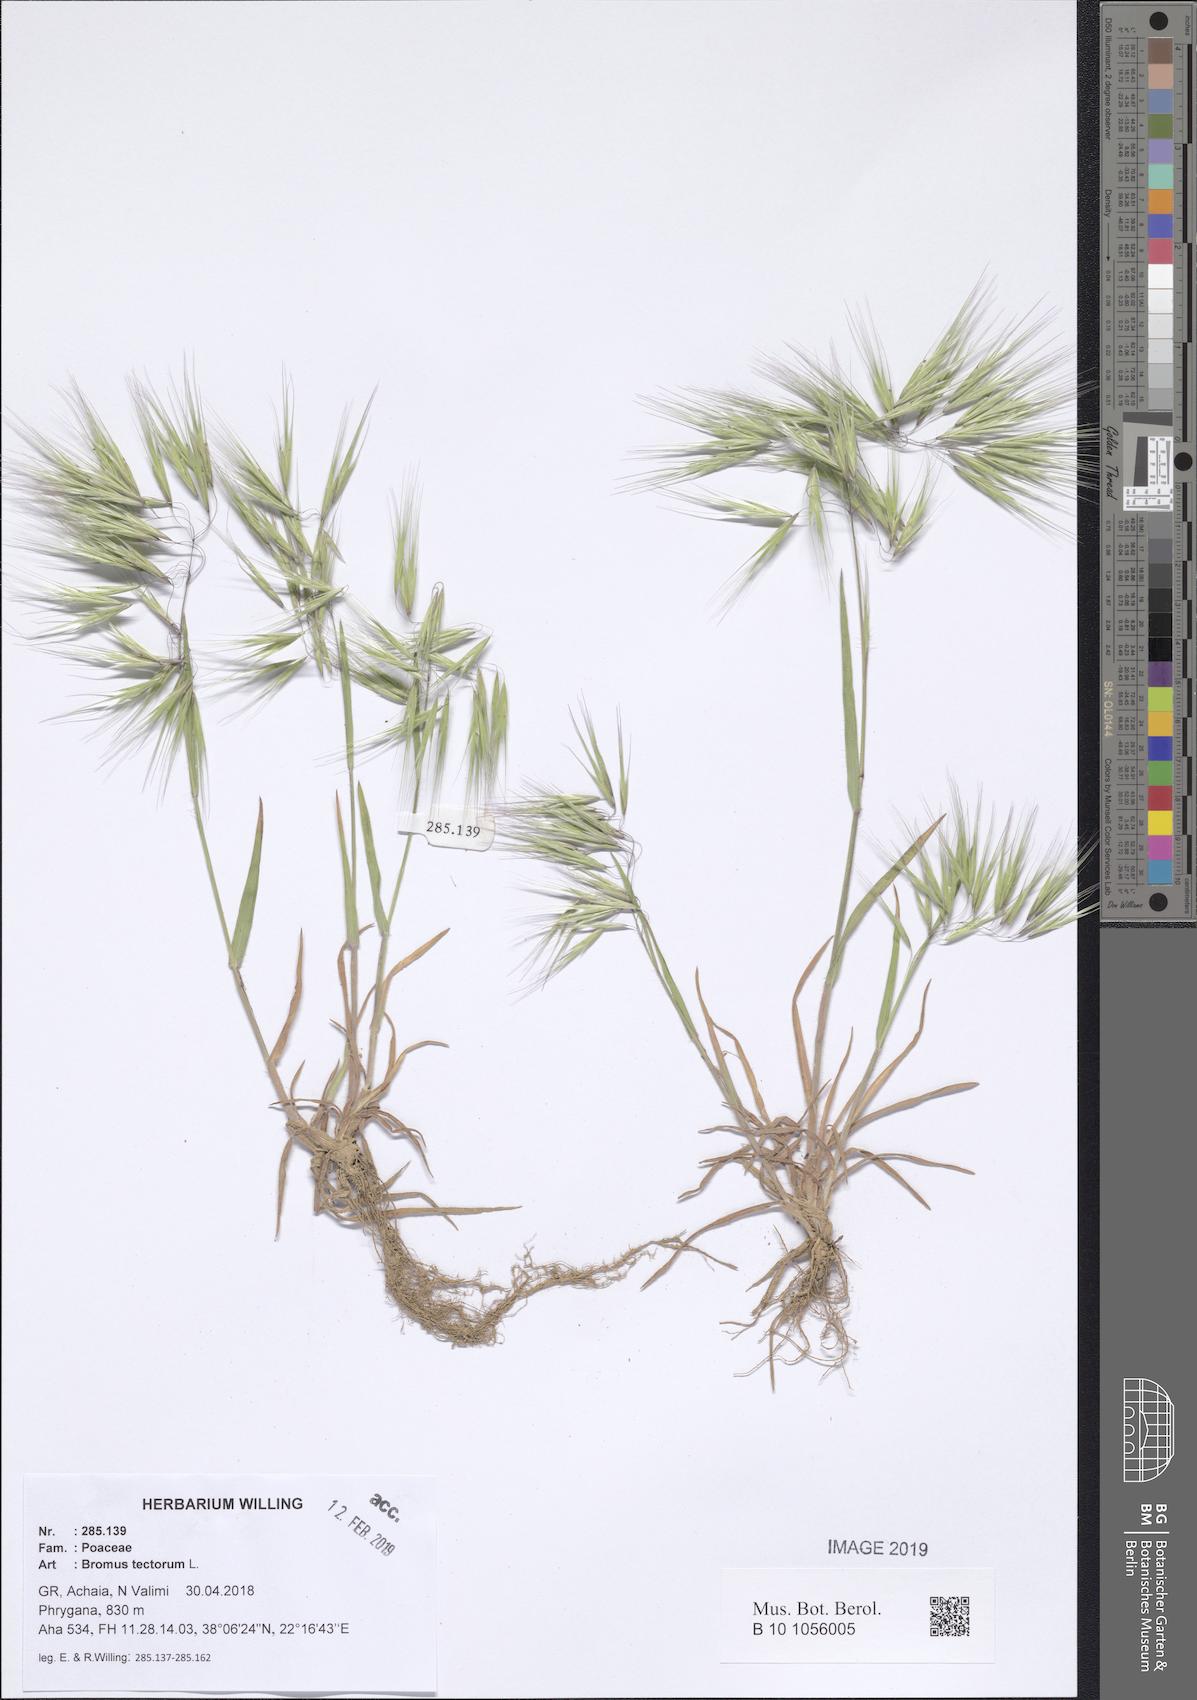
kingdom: Plantae
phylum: Tracheophyta
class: Liliopsida
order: Poales
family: Poaceae
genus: Bromus
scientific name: Bromus tectorum
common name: Cheatgrass
